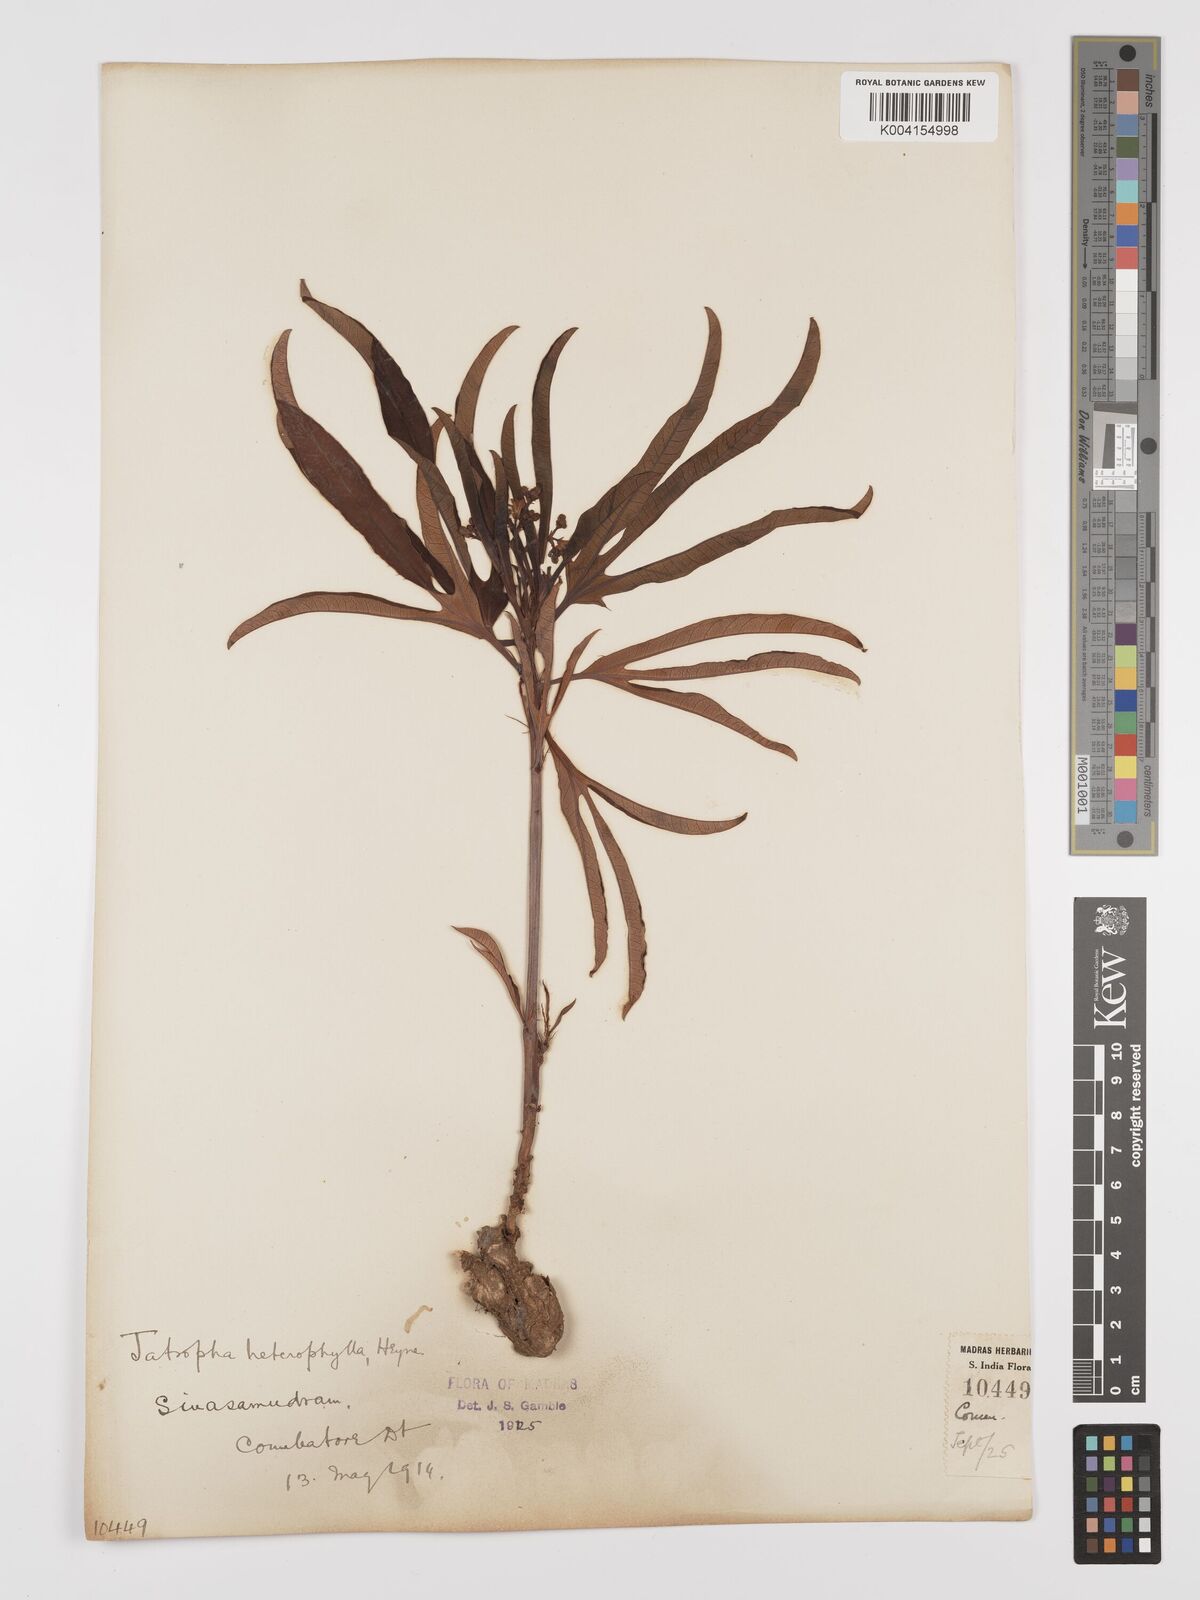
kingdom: Plantae
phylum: Tracheophyta
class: Magnoliopsida
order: Malpighiales
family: Euphorbiaceae
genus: Jatropha
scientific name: Jatropha
